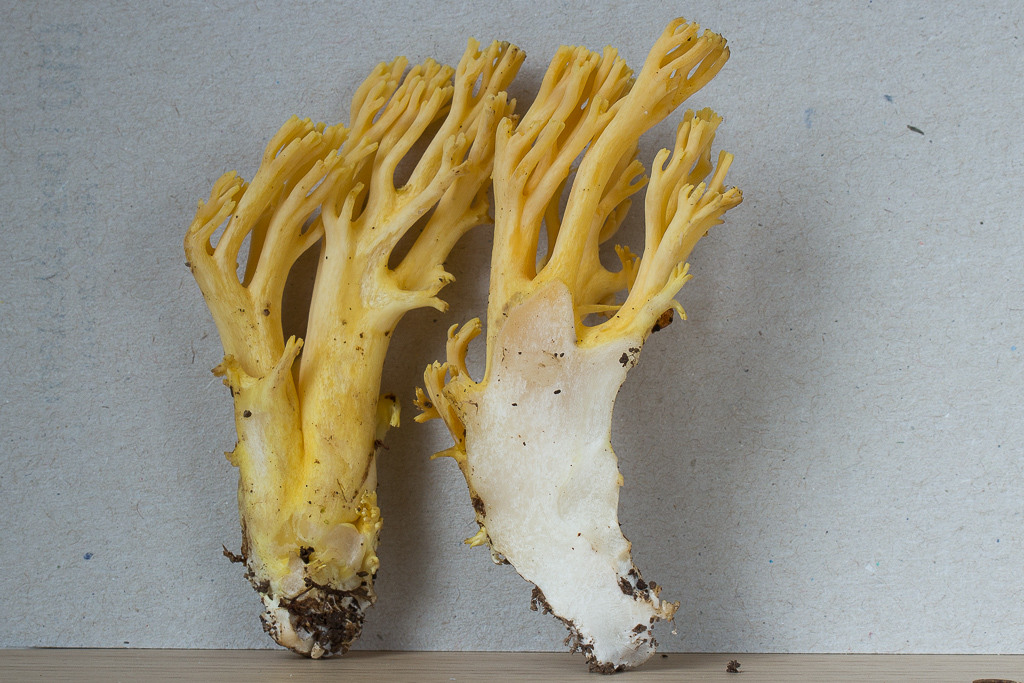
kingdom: Fungi
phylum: Basidiomycota
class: Agaricomycetes
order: Gomphales
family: Gomphaceae
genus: Ramaria
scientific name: Ramaria lutea
